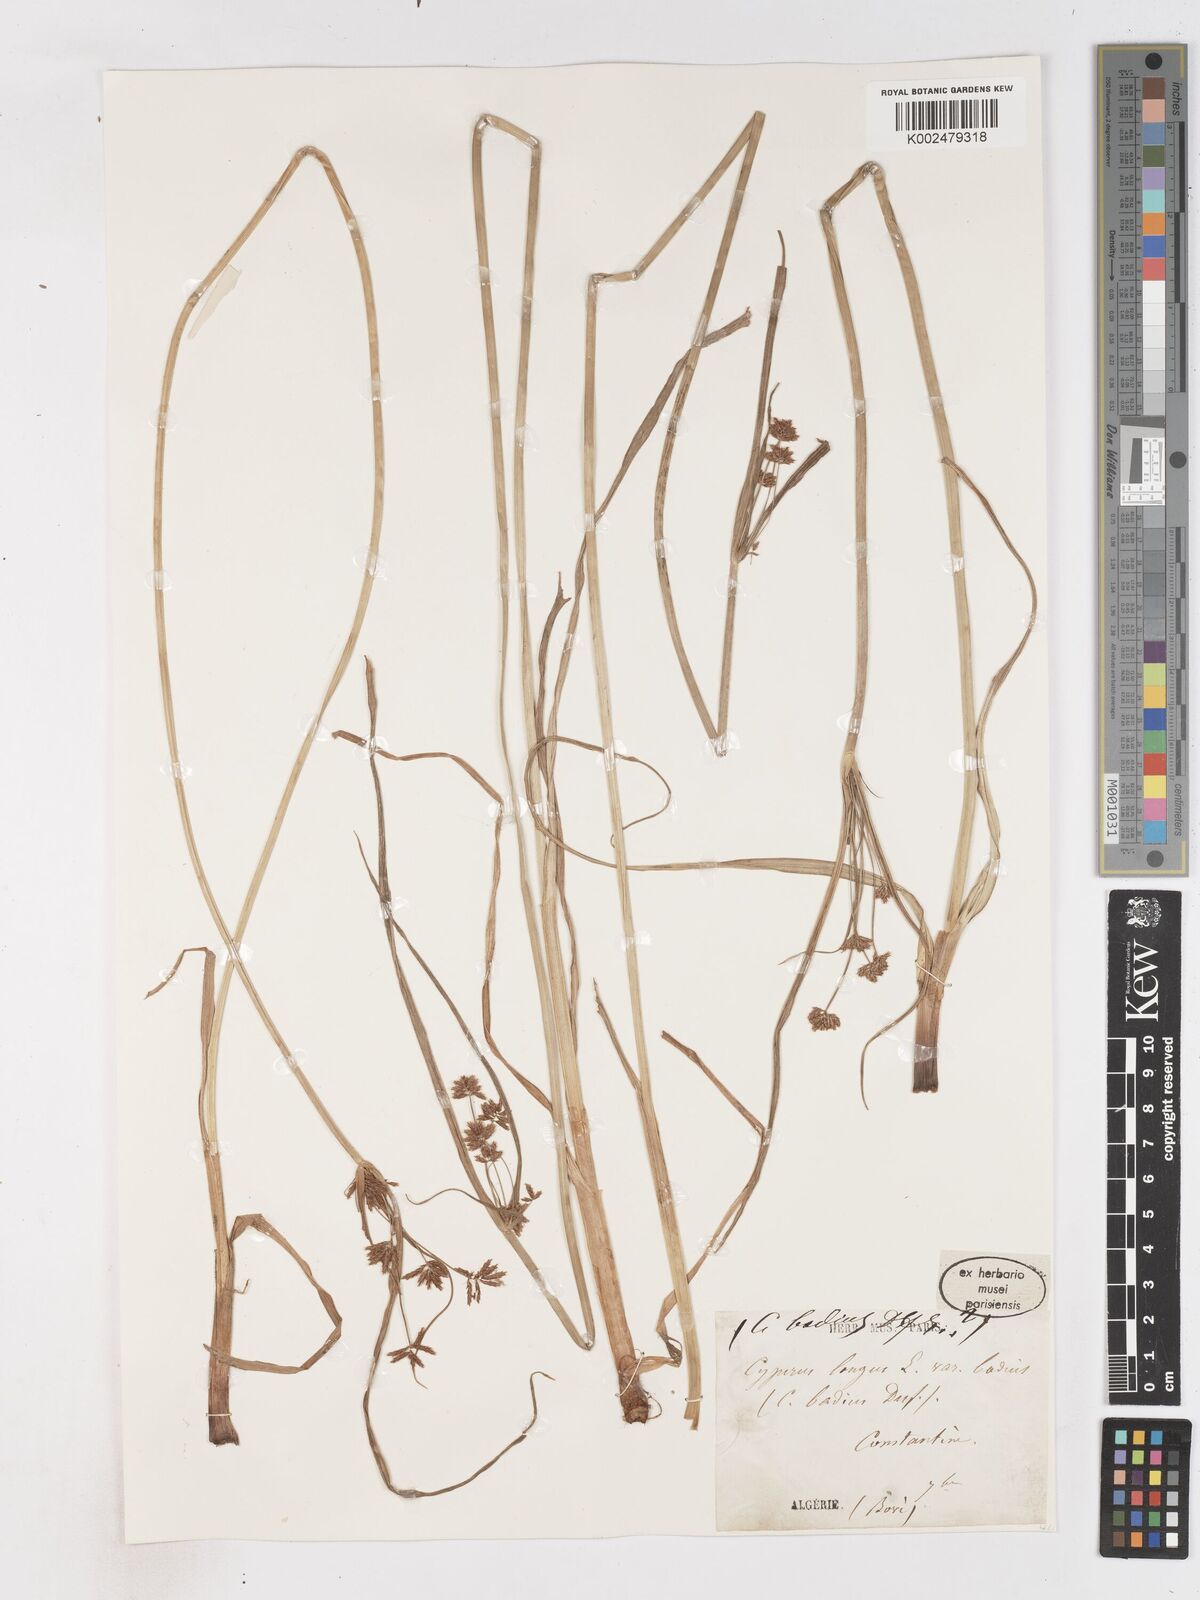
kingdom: Plantae
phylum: Tracheophyta
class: Liliopsida
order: Poales
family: Cyperaceae
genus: Cyperus
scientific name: Cyperus longus
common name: Galingale
